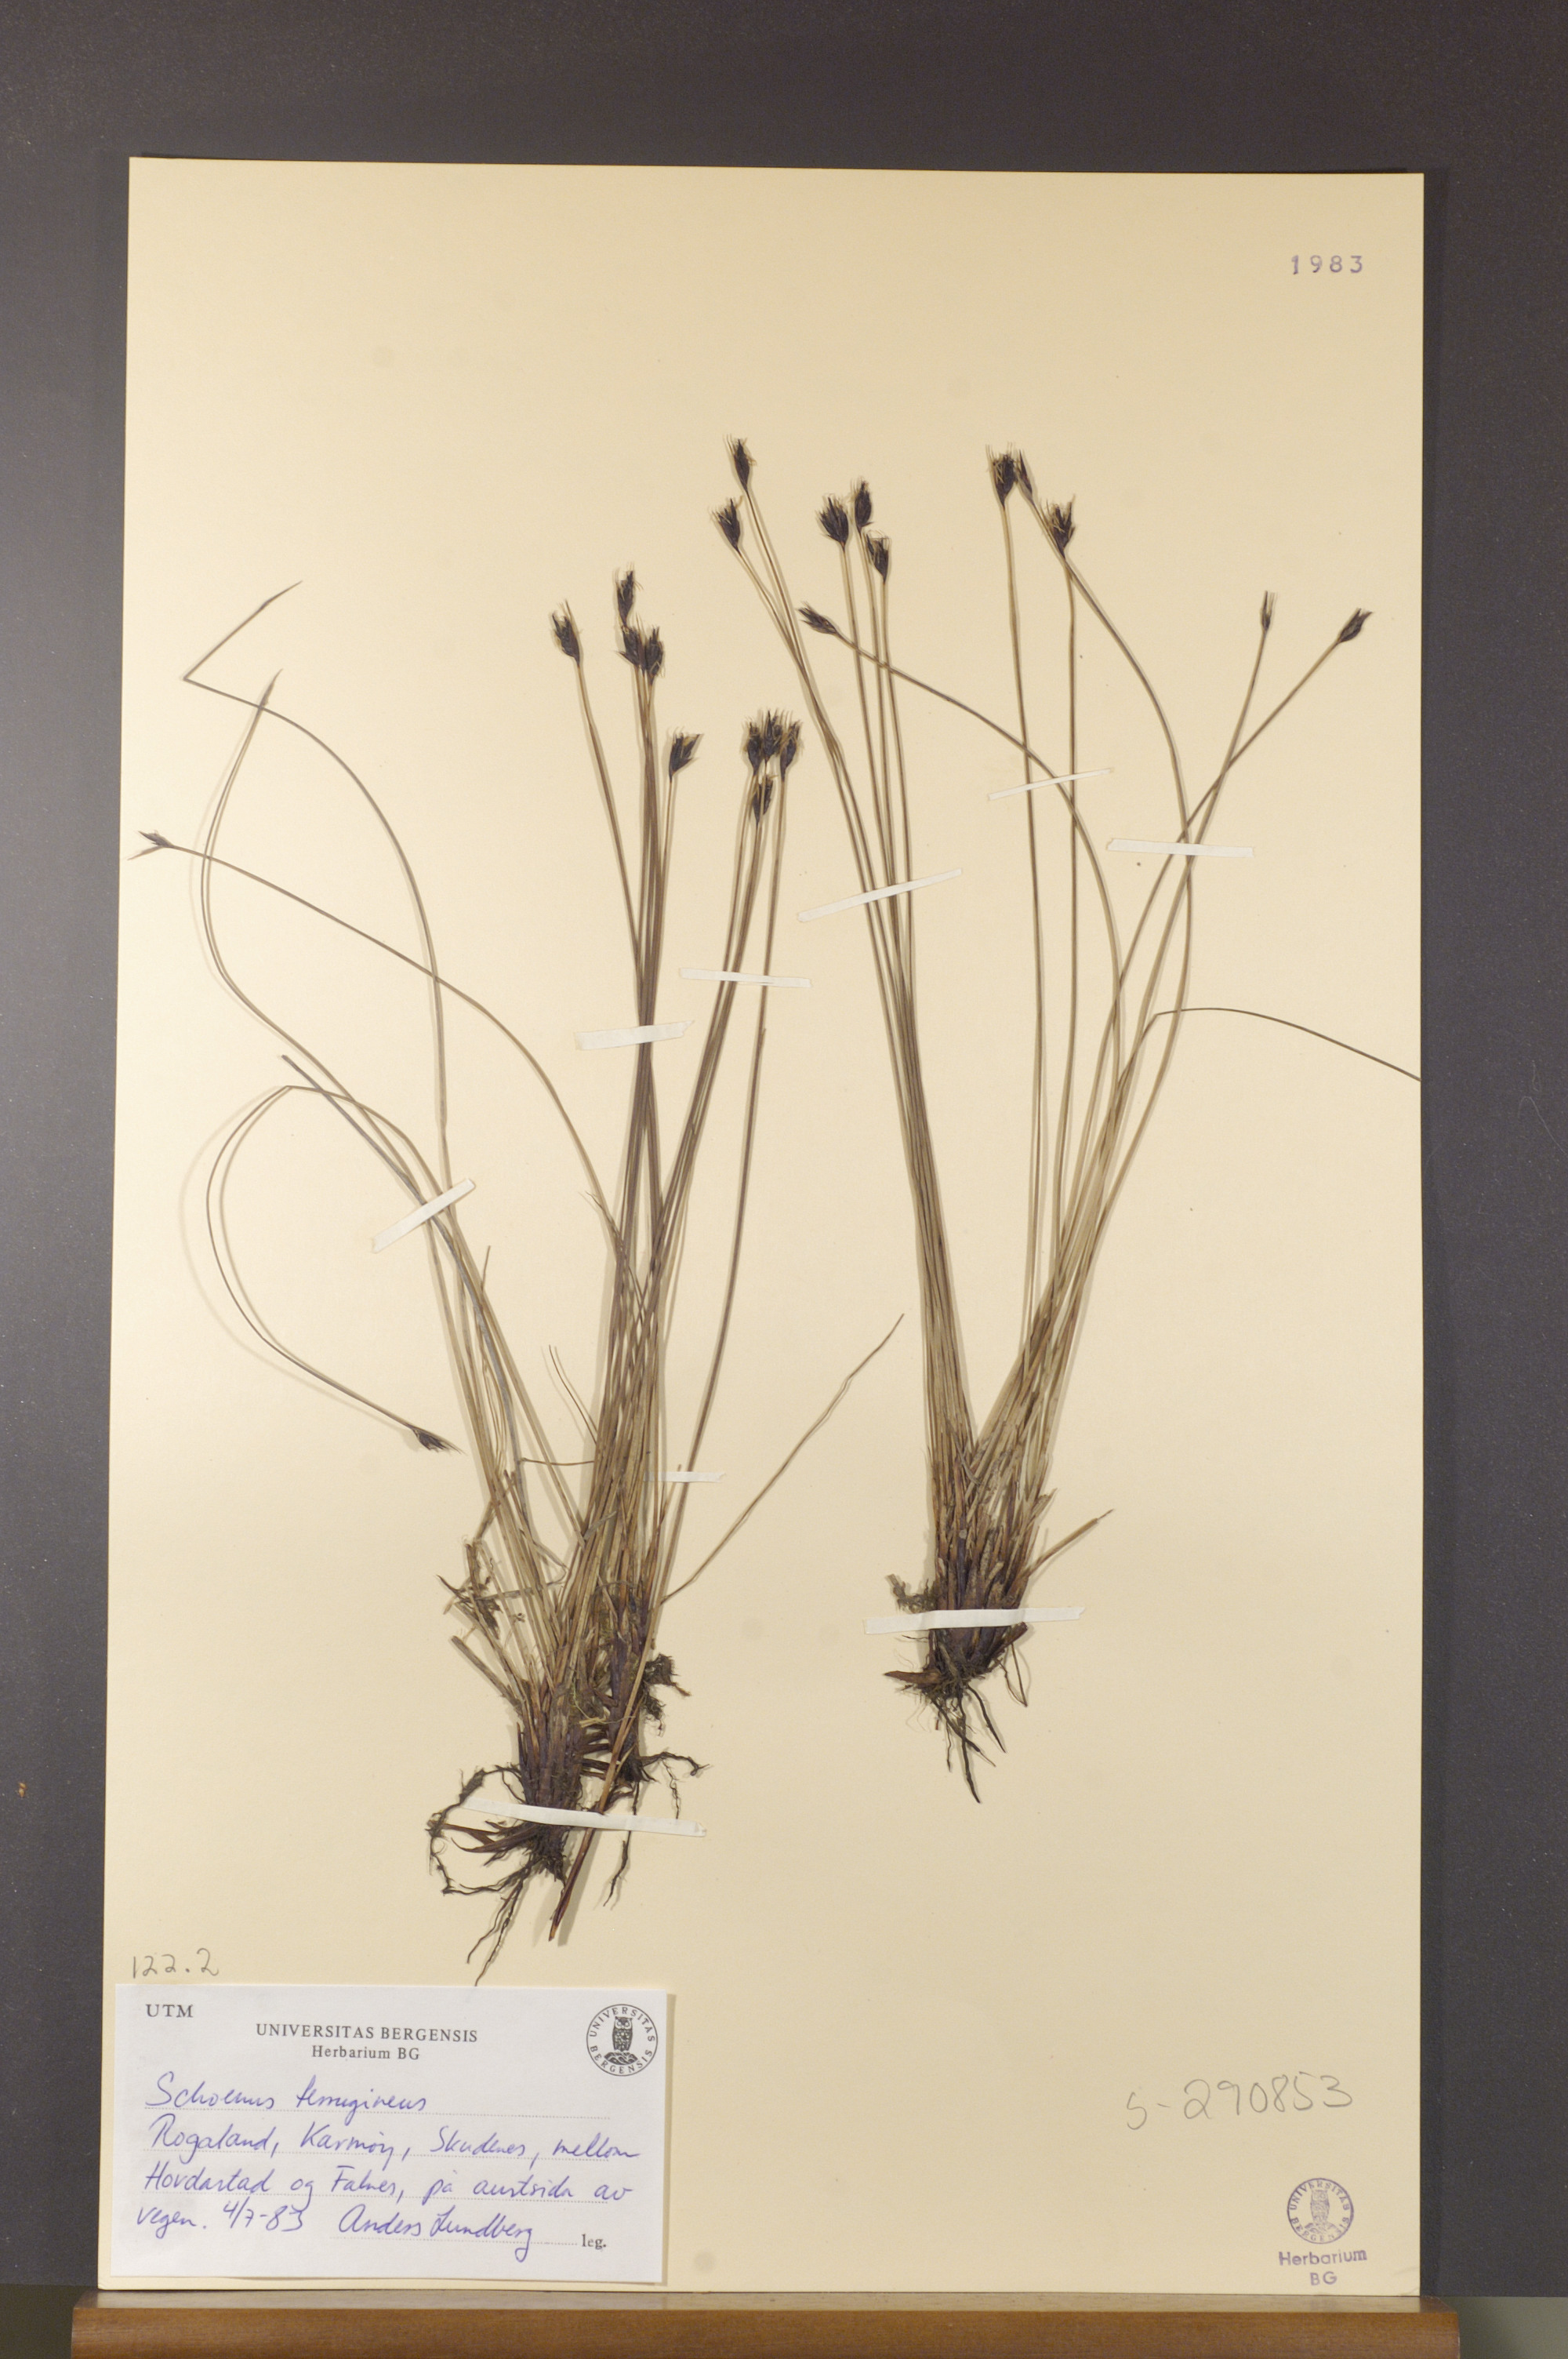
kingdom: Plantae
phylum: Tracheophyta
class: Liliopsida
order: Poales
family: Cyperaceae
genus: Schoenus
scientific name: Schoenus ferrugineus
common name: Brown bog-rush
